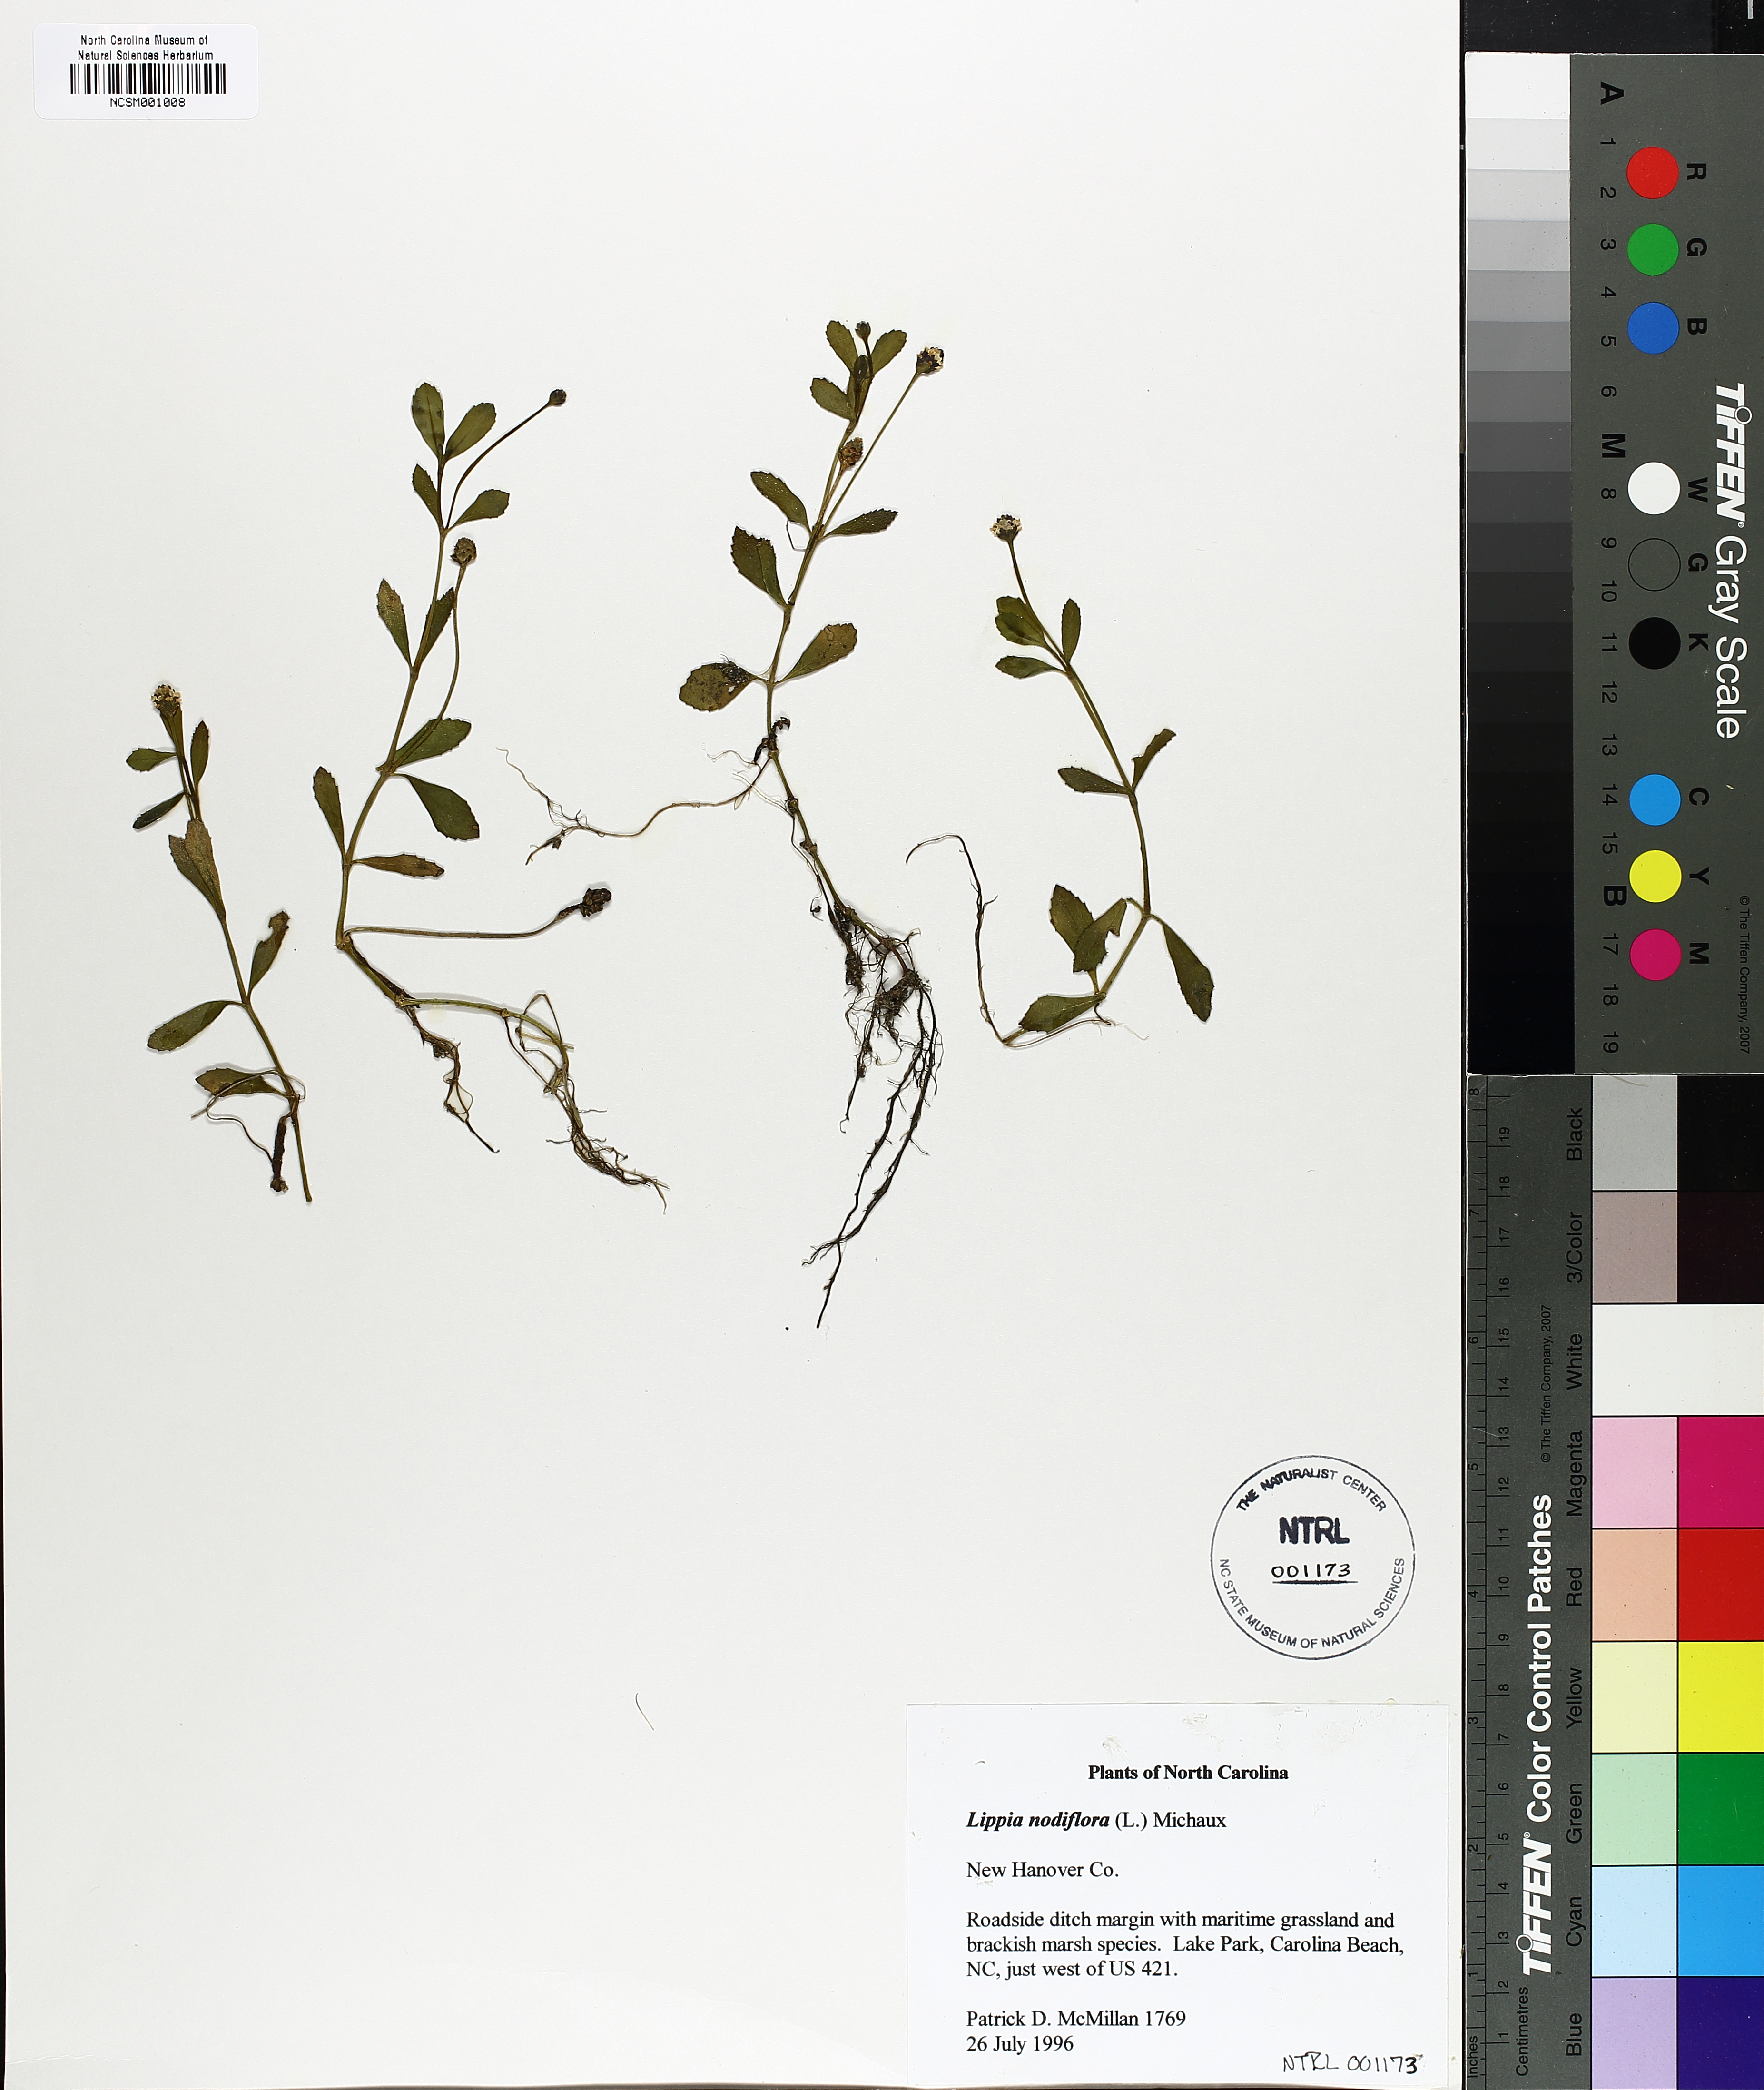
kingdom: Plantae
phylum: Tracheophyta
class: Magnoliopsida
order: Lamiales
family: Verbenaceae
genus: Phyla
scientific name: Phyla nodiflora
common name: Frogfruit
